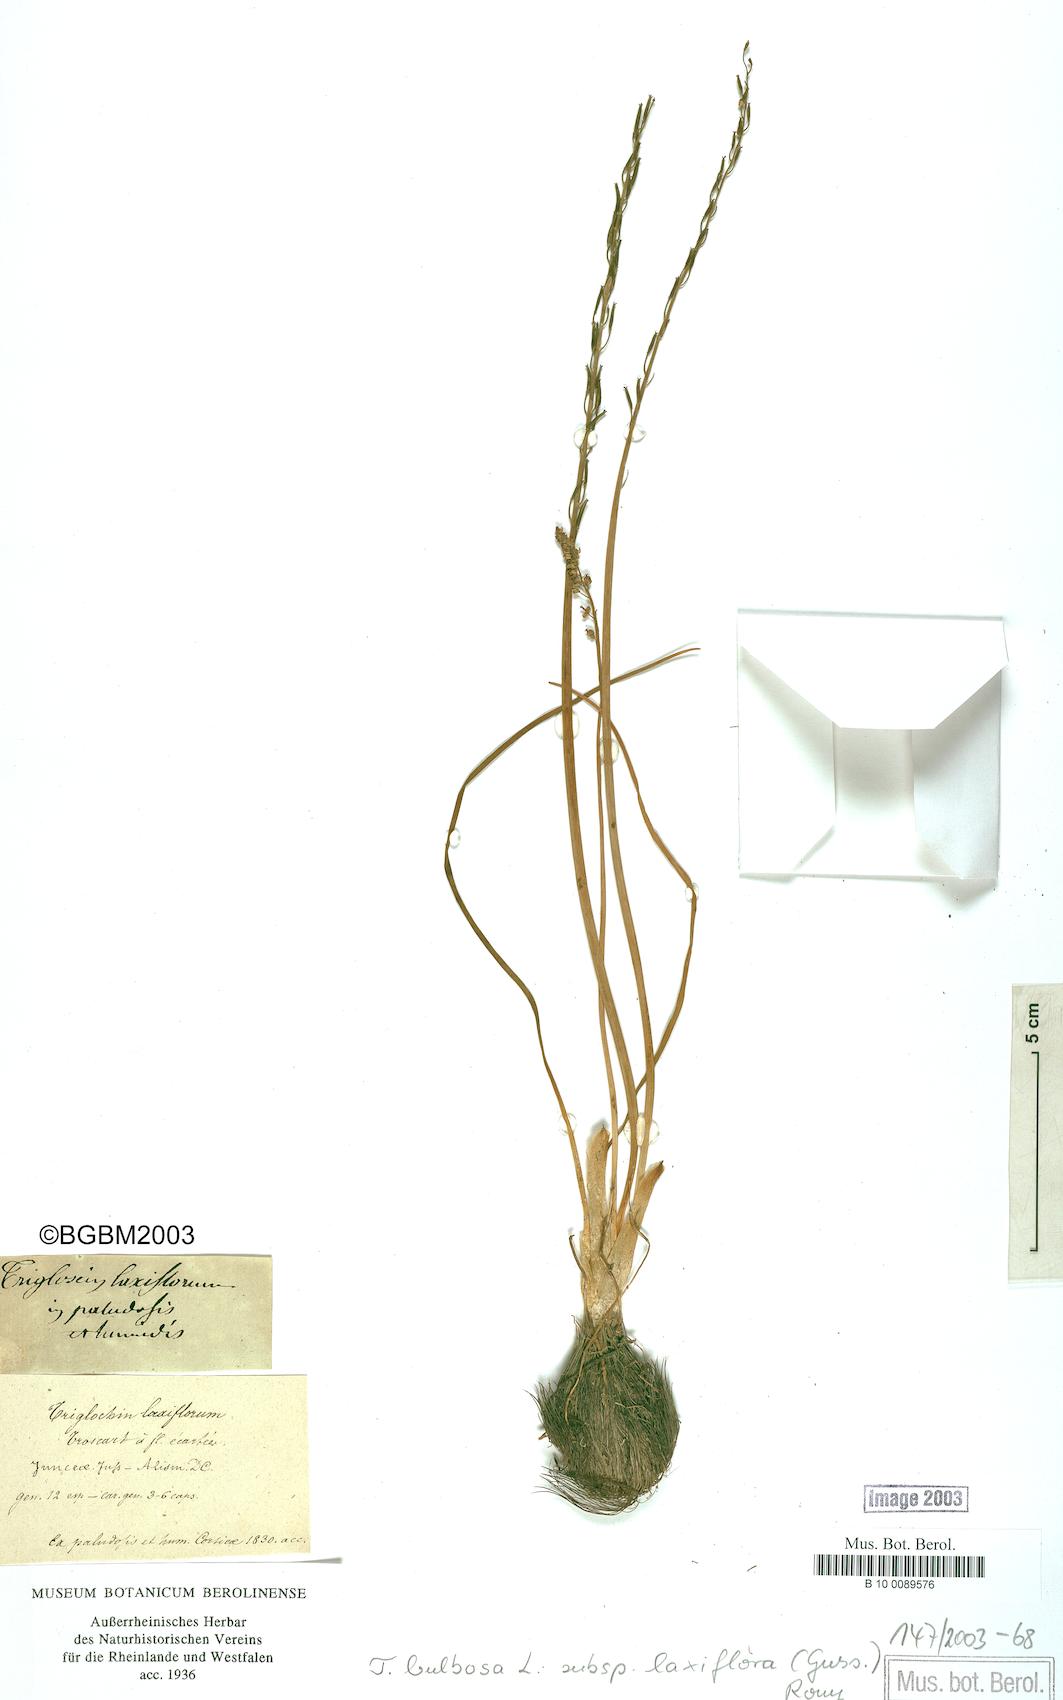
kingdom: Plantae
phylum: Tracheophyta
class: Liliopsida
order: Alismatales
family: Juncaginaceae
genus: Triglochin
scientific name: Triglochin laxiflora
